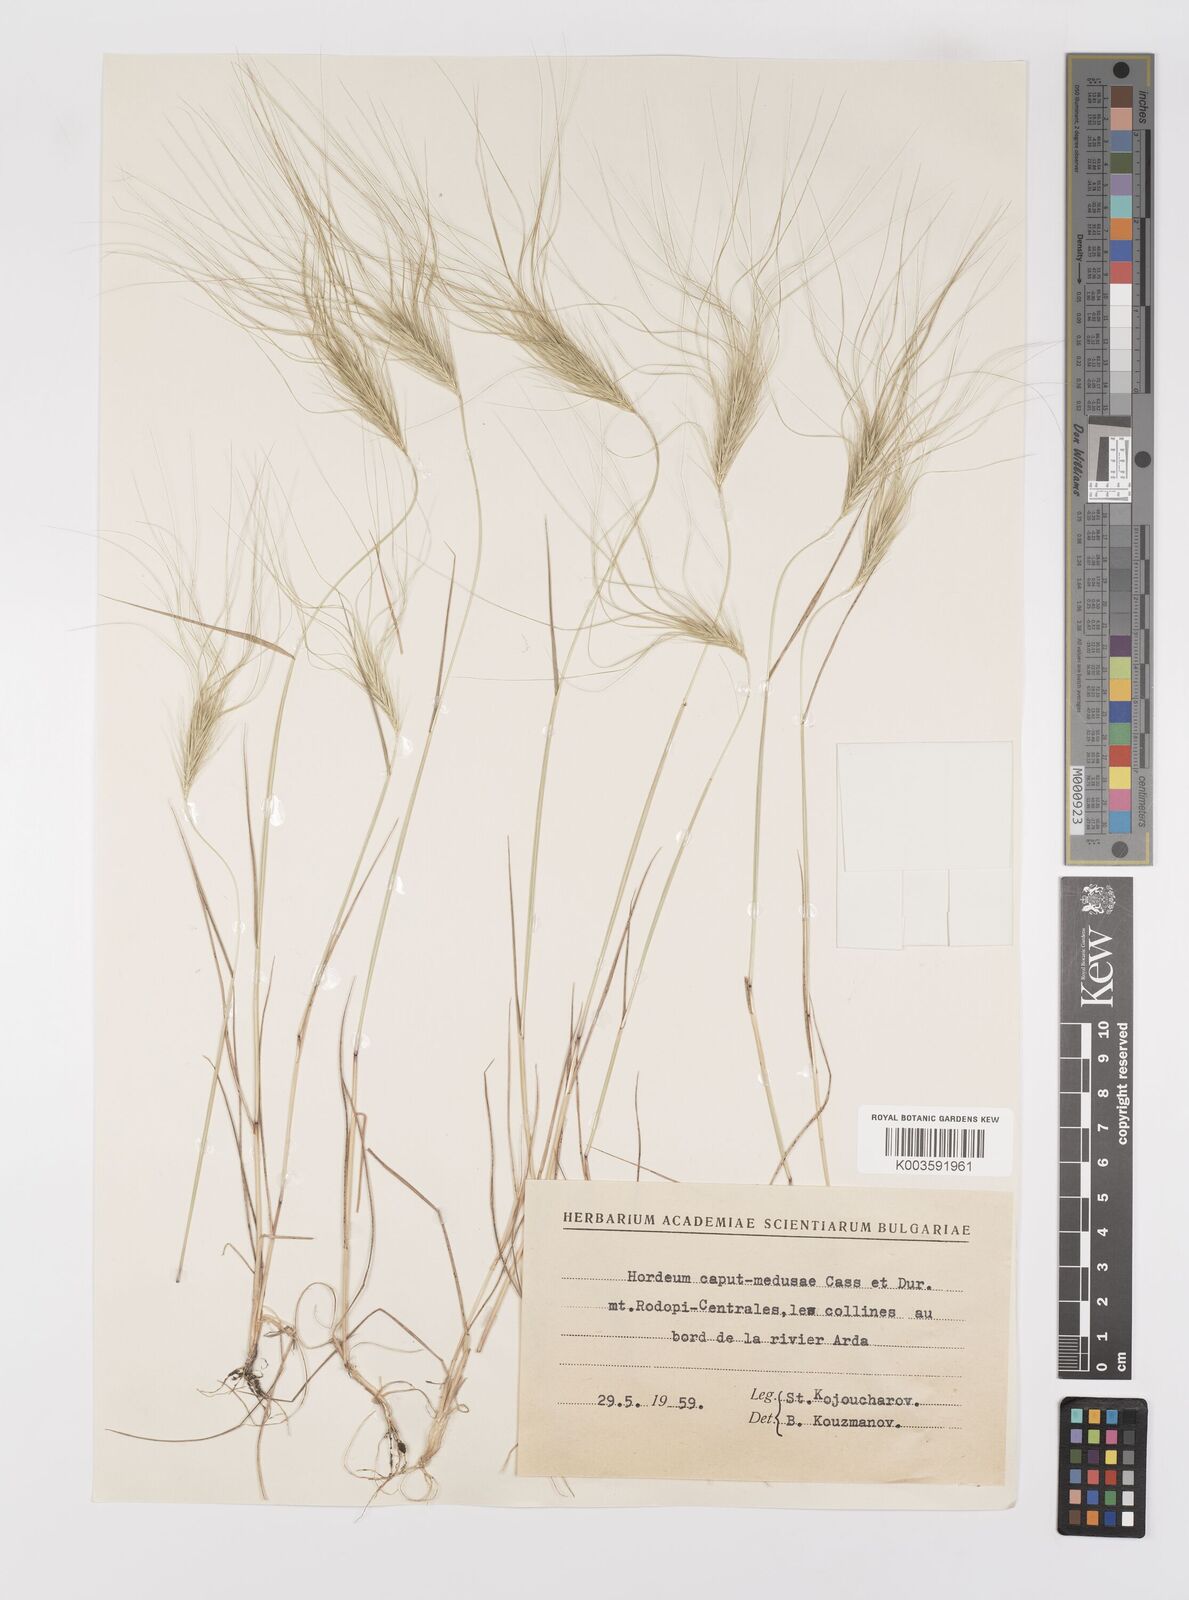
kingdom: Plantae
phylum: Tracheophyta
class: Liliopsida
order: Poales
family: Poaceae
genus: Taeniatherum
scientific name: Taeniatherum caput-medusae
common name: Medusahead
